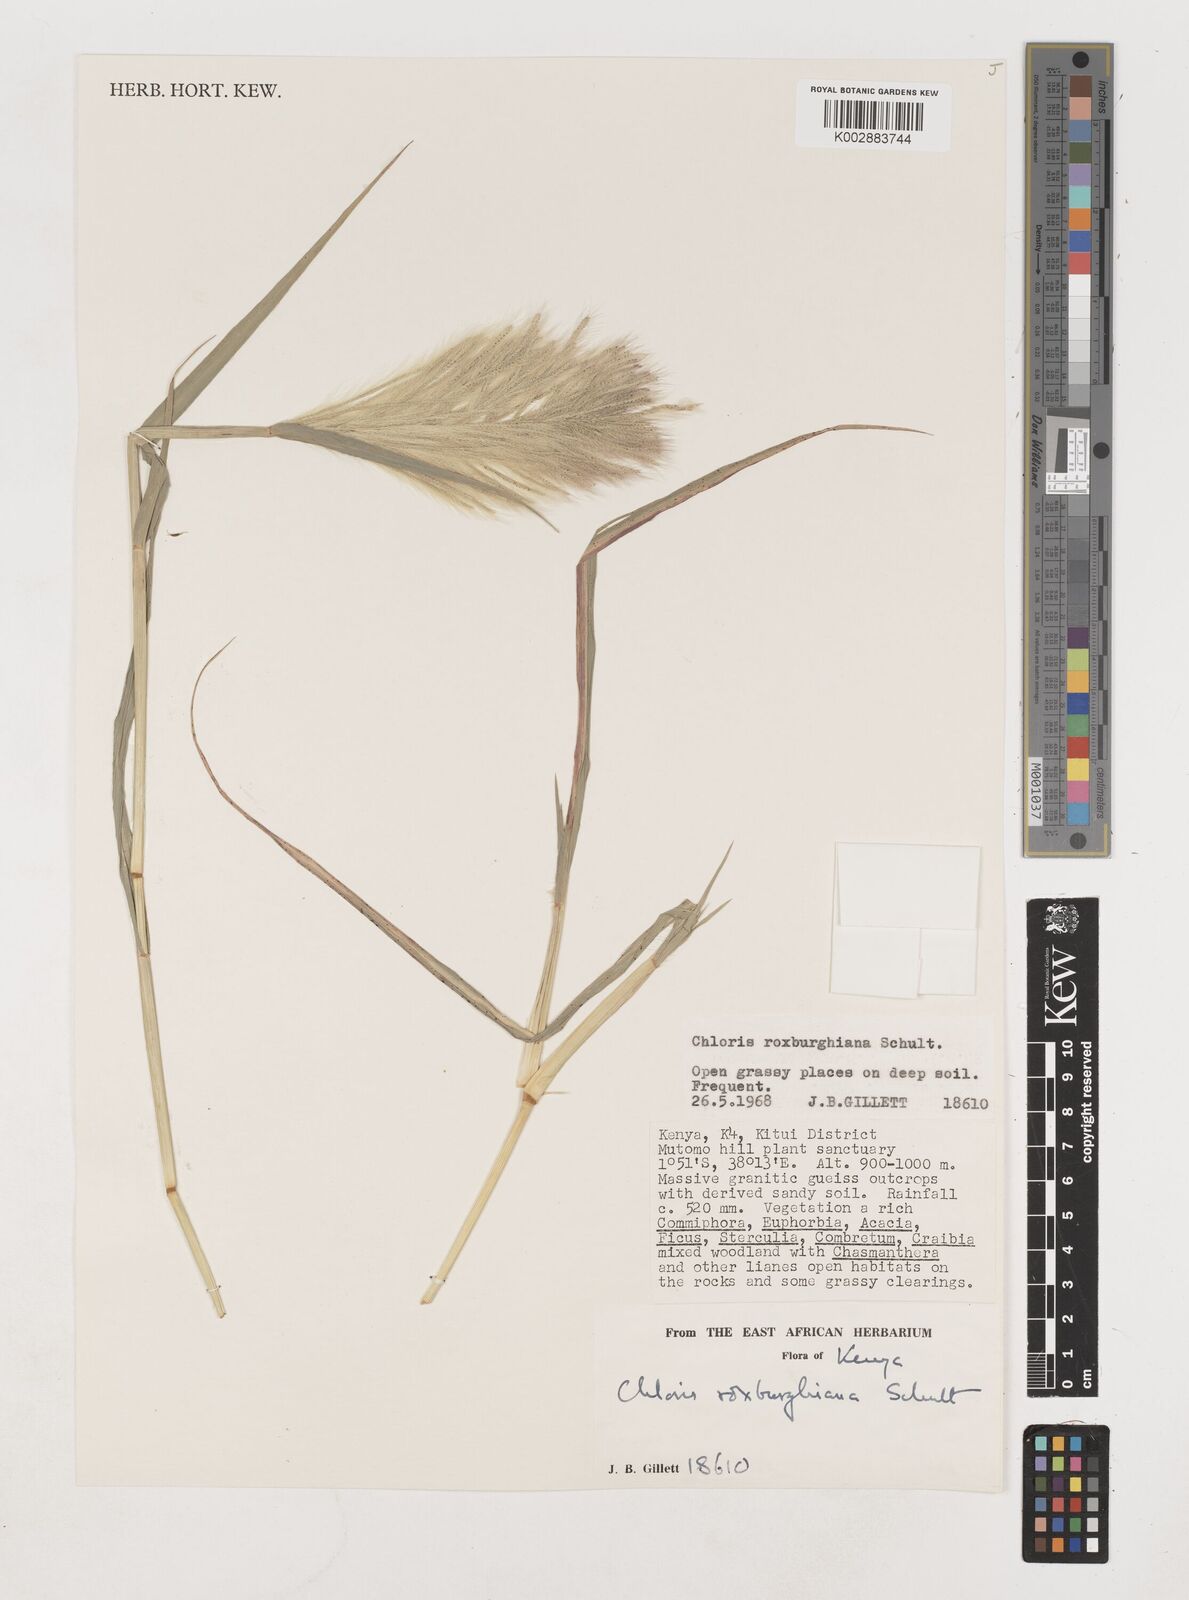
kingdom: Plantae
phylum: Tracheophyta
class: Liliopsida
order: Poales
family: Poaceae
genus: Tetrapogon
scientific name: Tetrapogon roxburghiana
